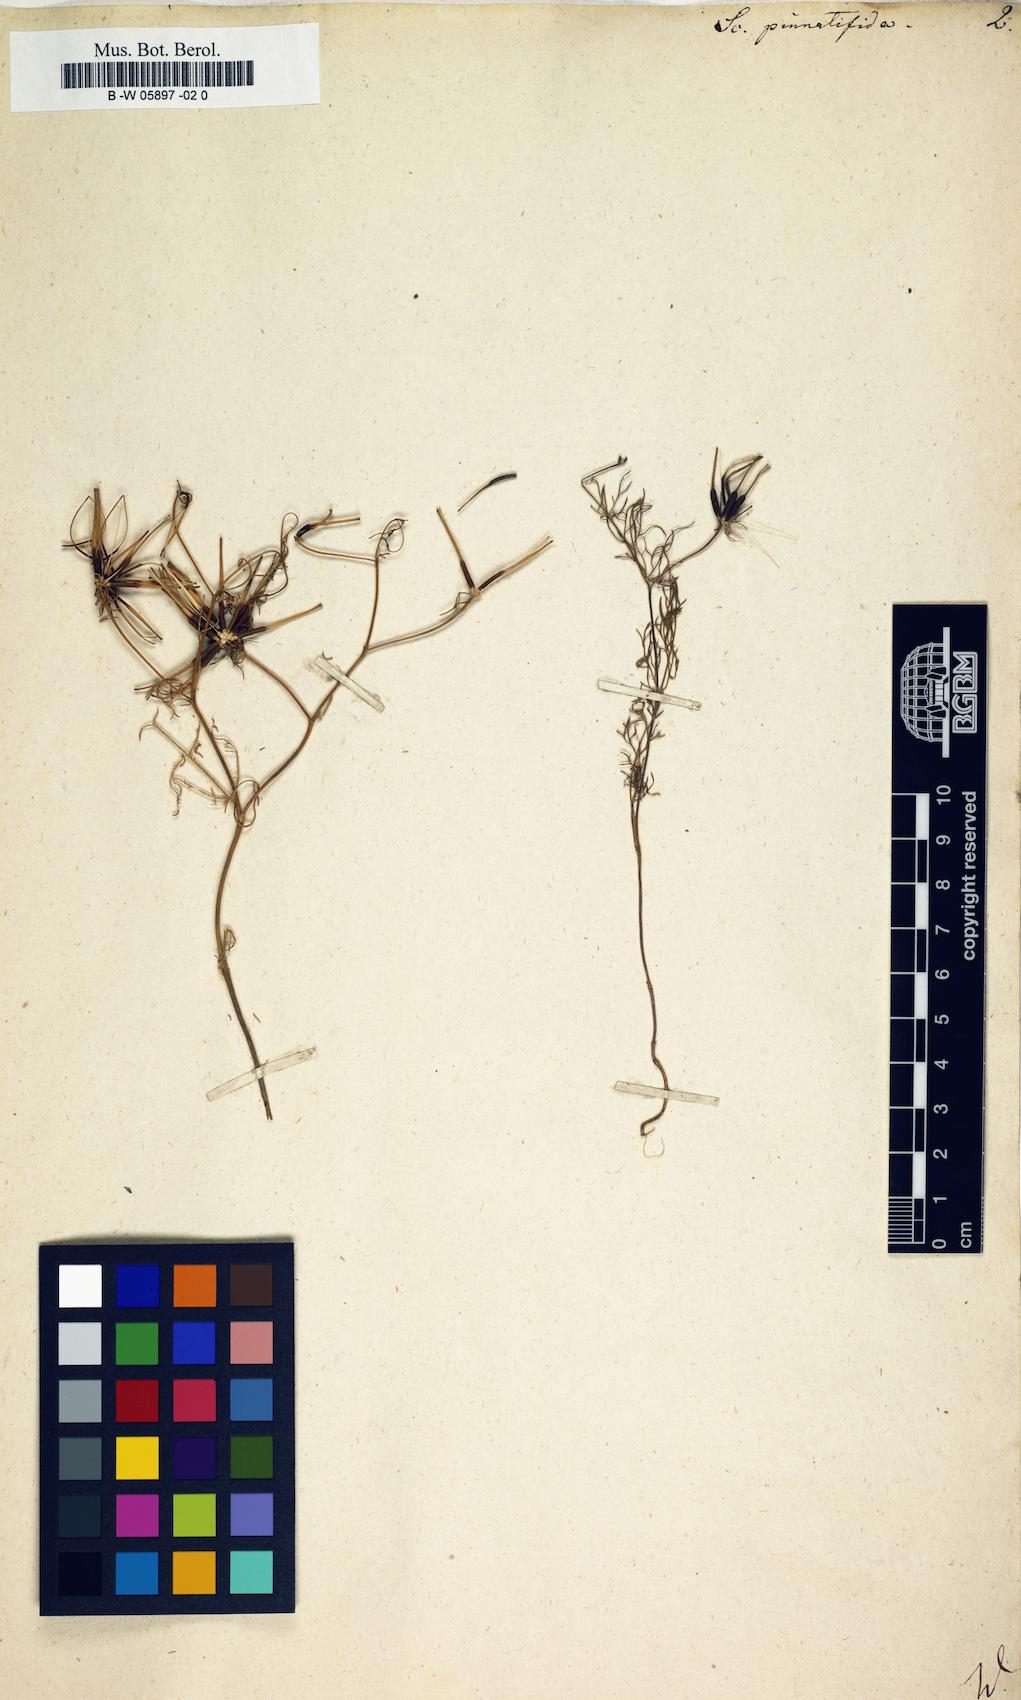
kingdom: Plantae
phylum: Tracheophyta
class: Magnoliopsida
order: Apiales
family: Apiaceae
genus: Scandix
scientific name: Scandix
